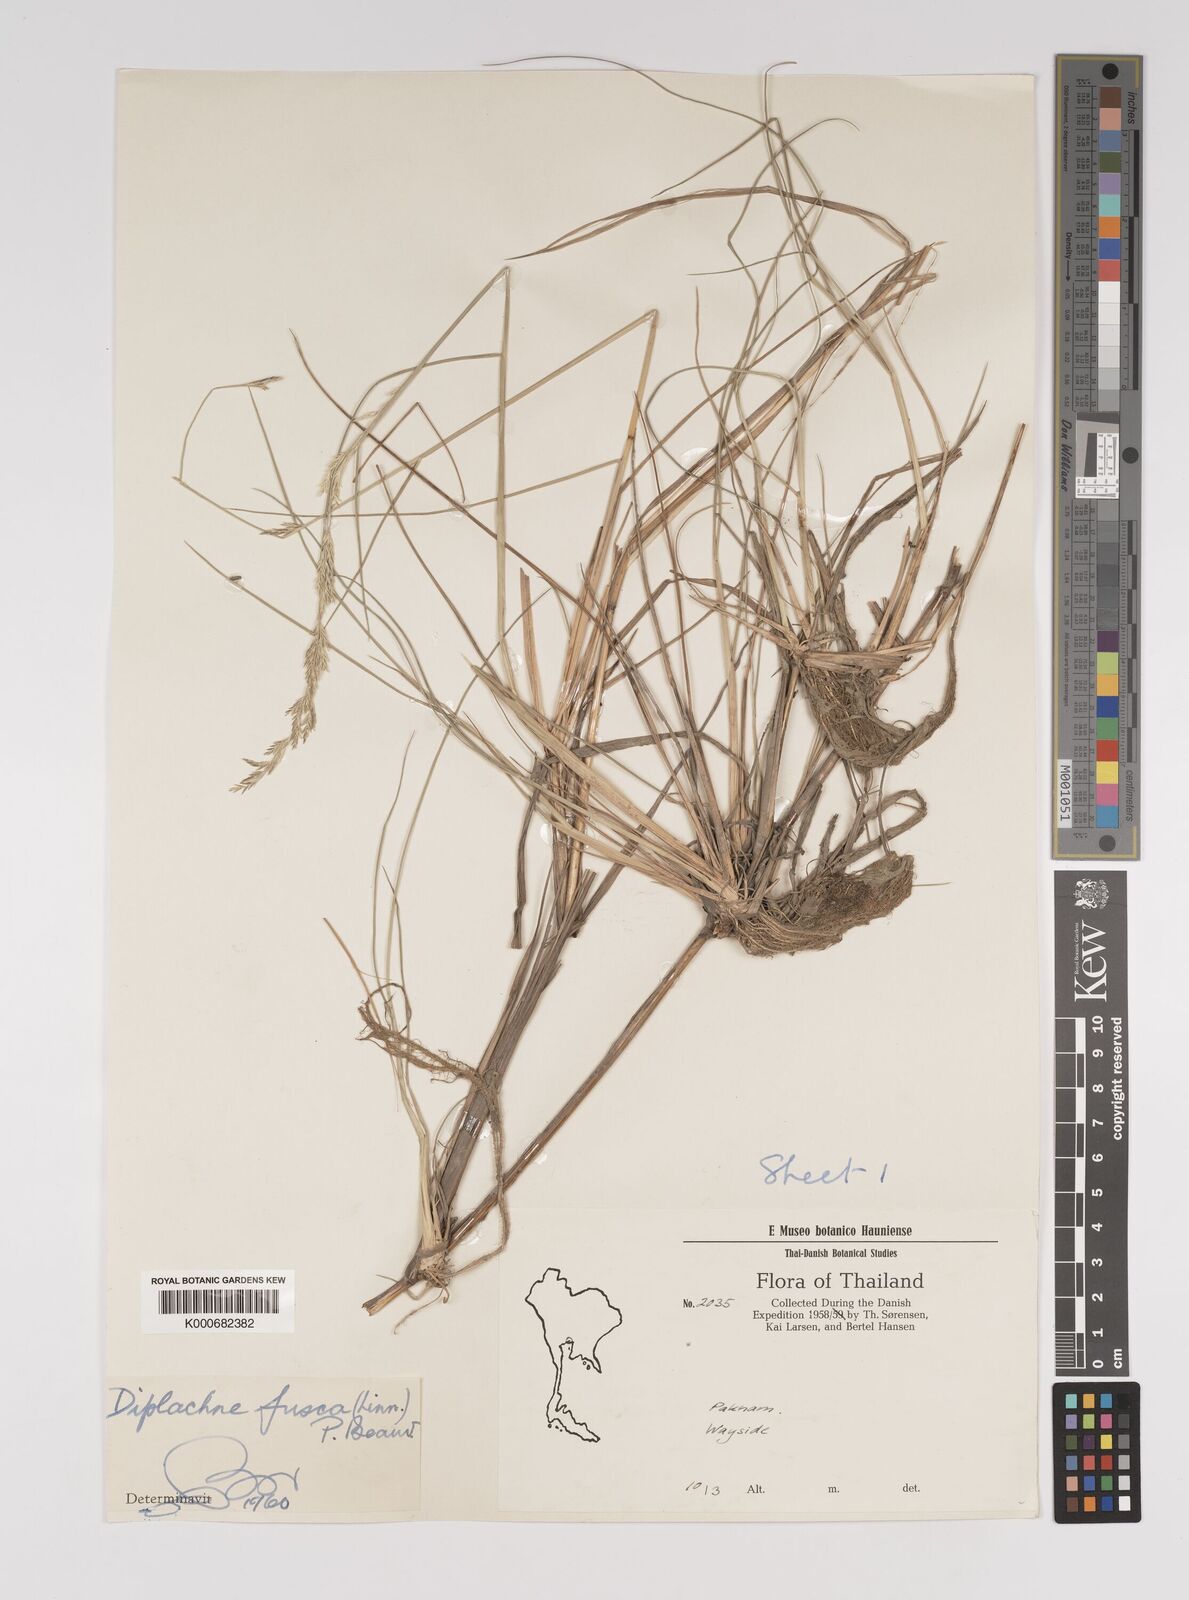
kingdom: Plantae
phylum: Tracheophyta
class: Liliopsida
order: Poales
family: Poaceae
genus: Diplachne
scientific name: Diplachne fusca
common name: Brown beetle grass
